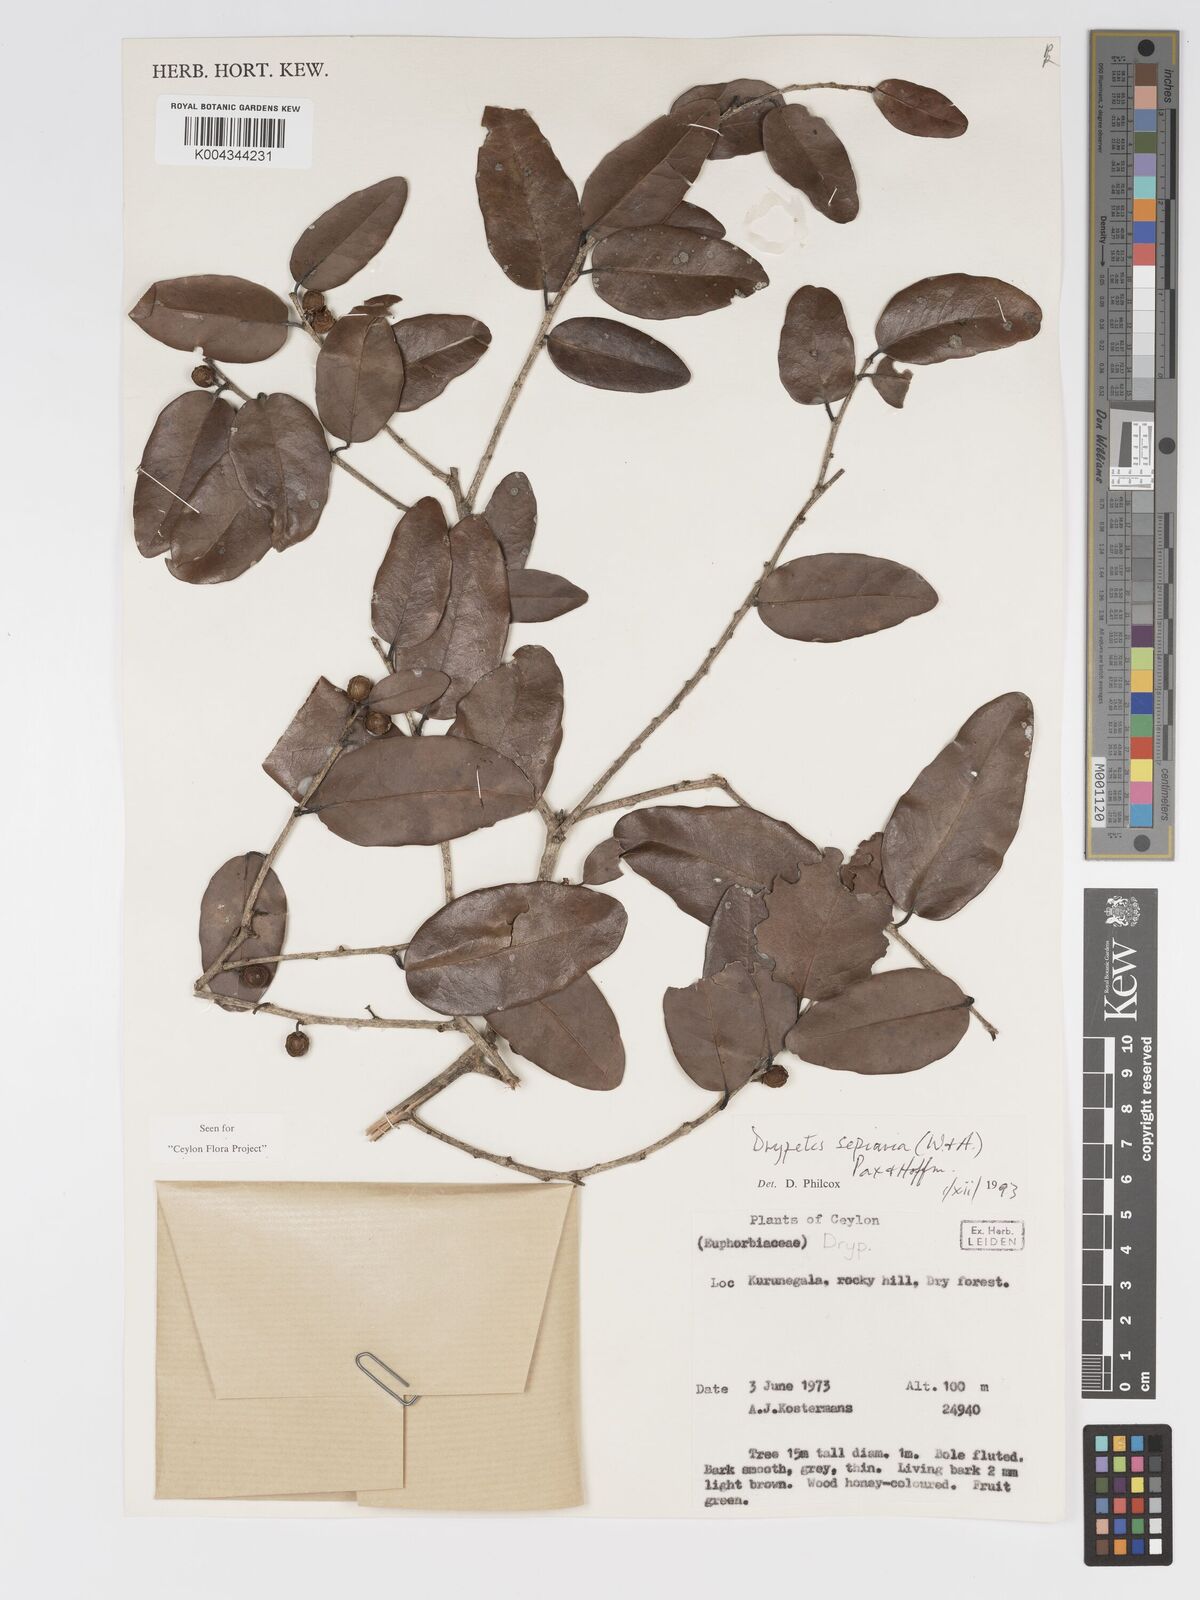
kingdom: Plantae
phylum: Tracheophyta
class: Magnoliopsida
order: Malpighiales
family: Putranjivaceae
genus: Drypetes
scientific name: Drypetes sepiaria
